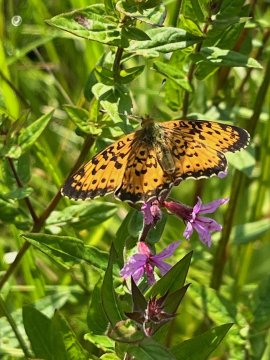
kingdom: Animalia
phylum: Arthropoda
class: Insecta
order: Lepidoptera
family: Nymphalidae
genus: Boloria
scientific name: Boloria selene
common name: Silver-bordered Fritillary
